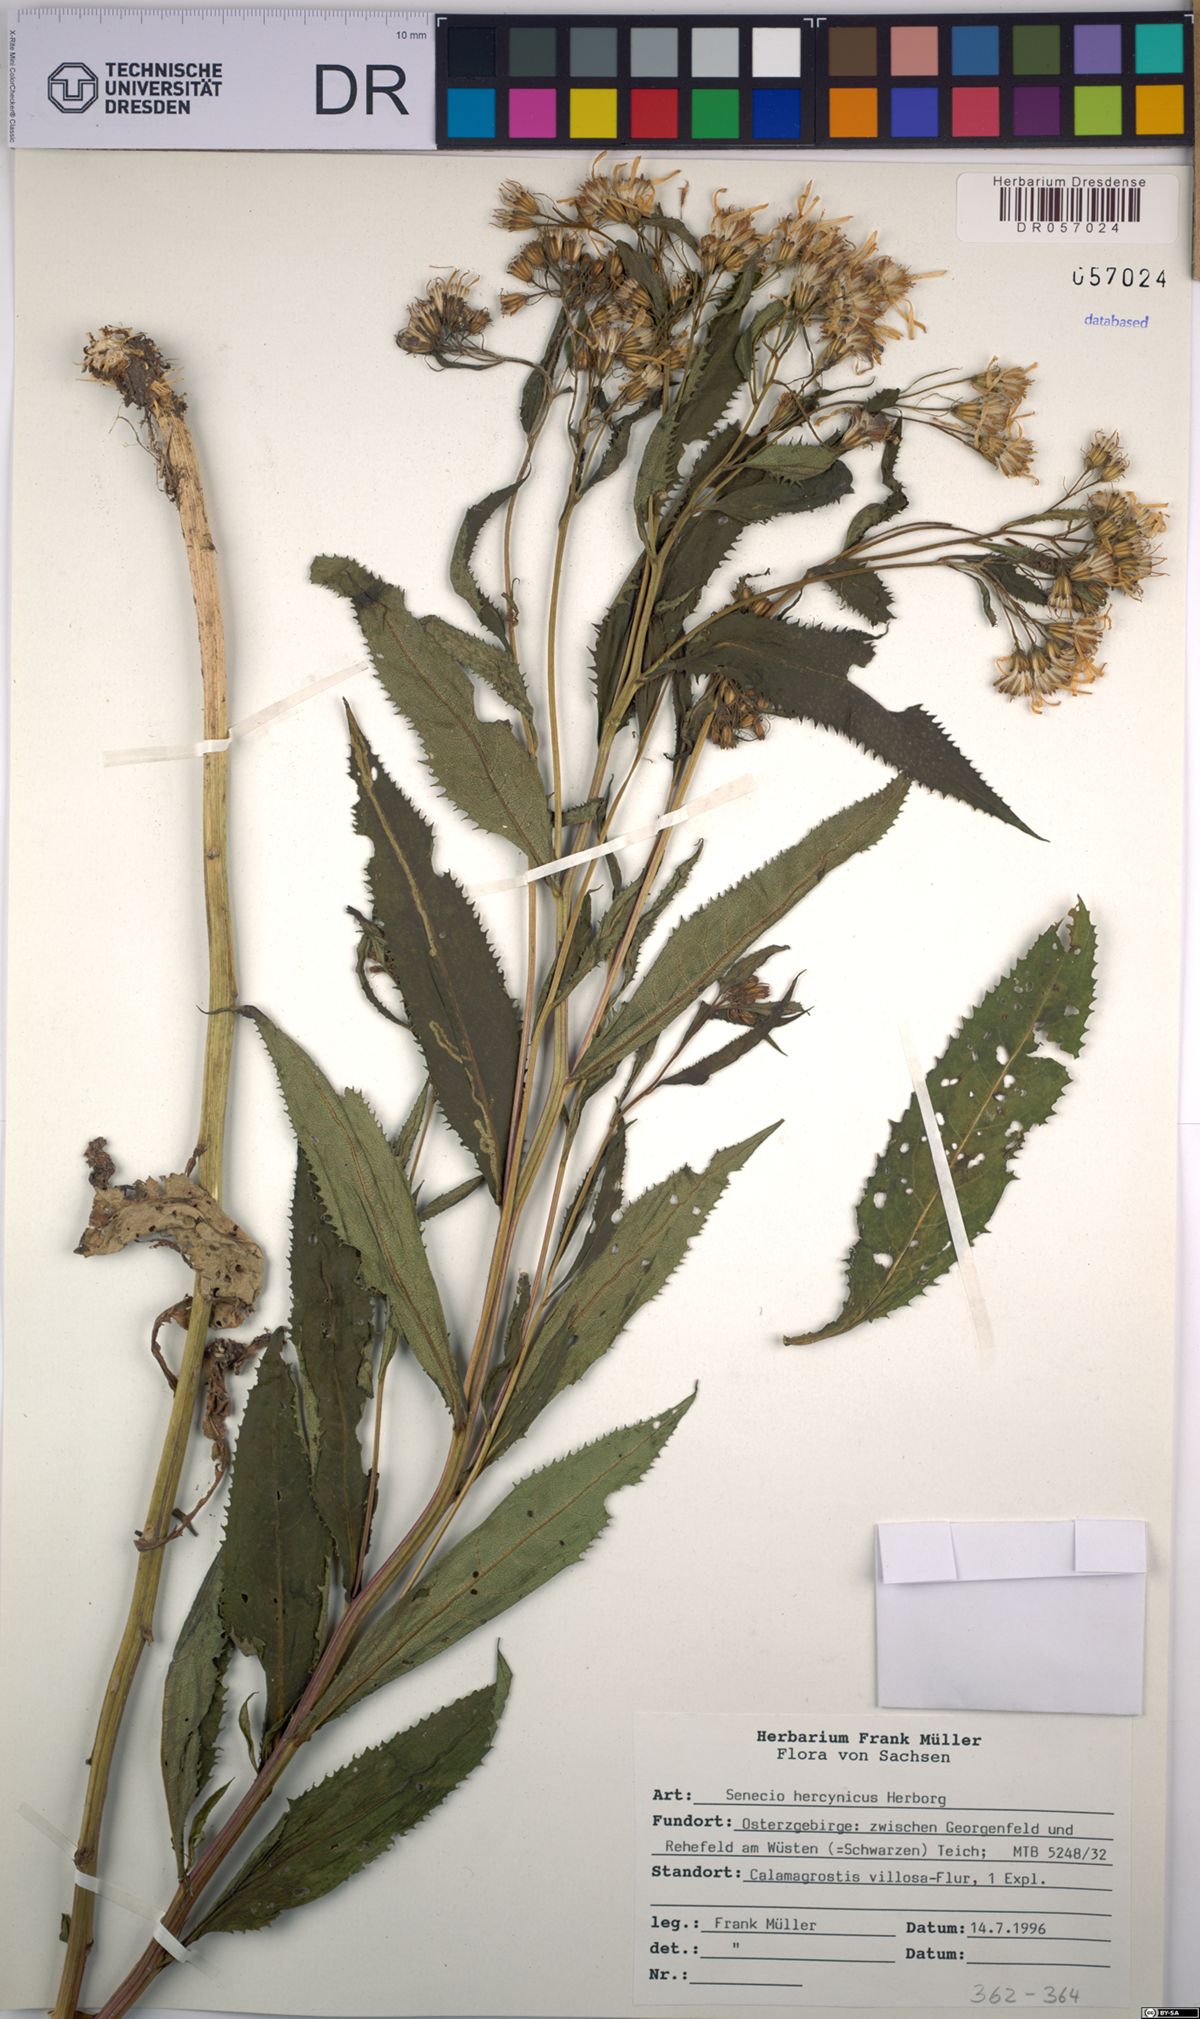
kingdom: Plantae
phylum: Tracheophyta
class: Magnoliopsida
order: Asterales
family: Asteraceae
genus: Senecio
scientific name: Senecio hercynicus
